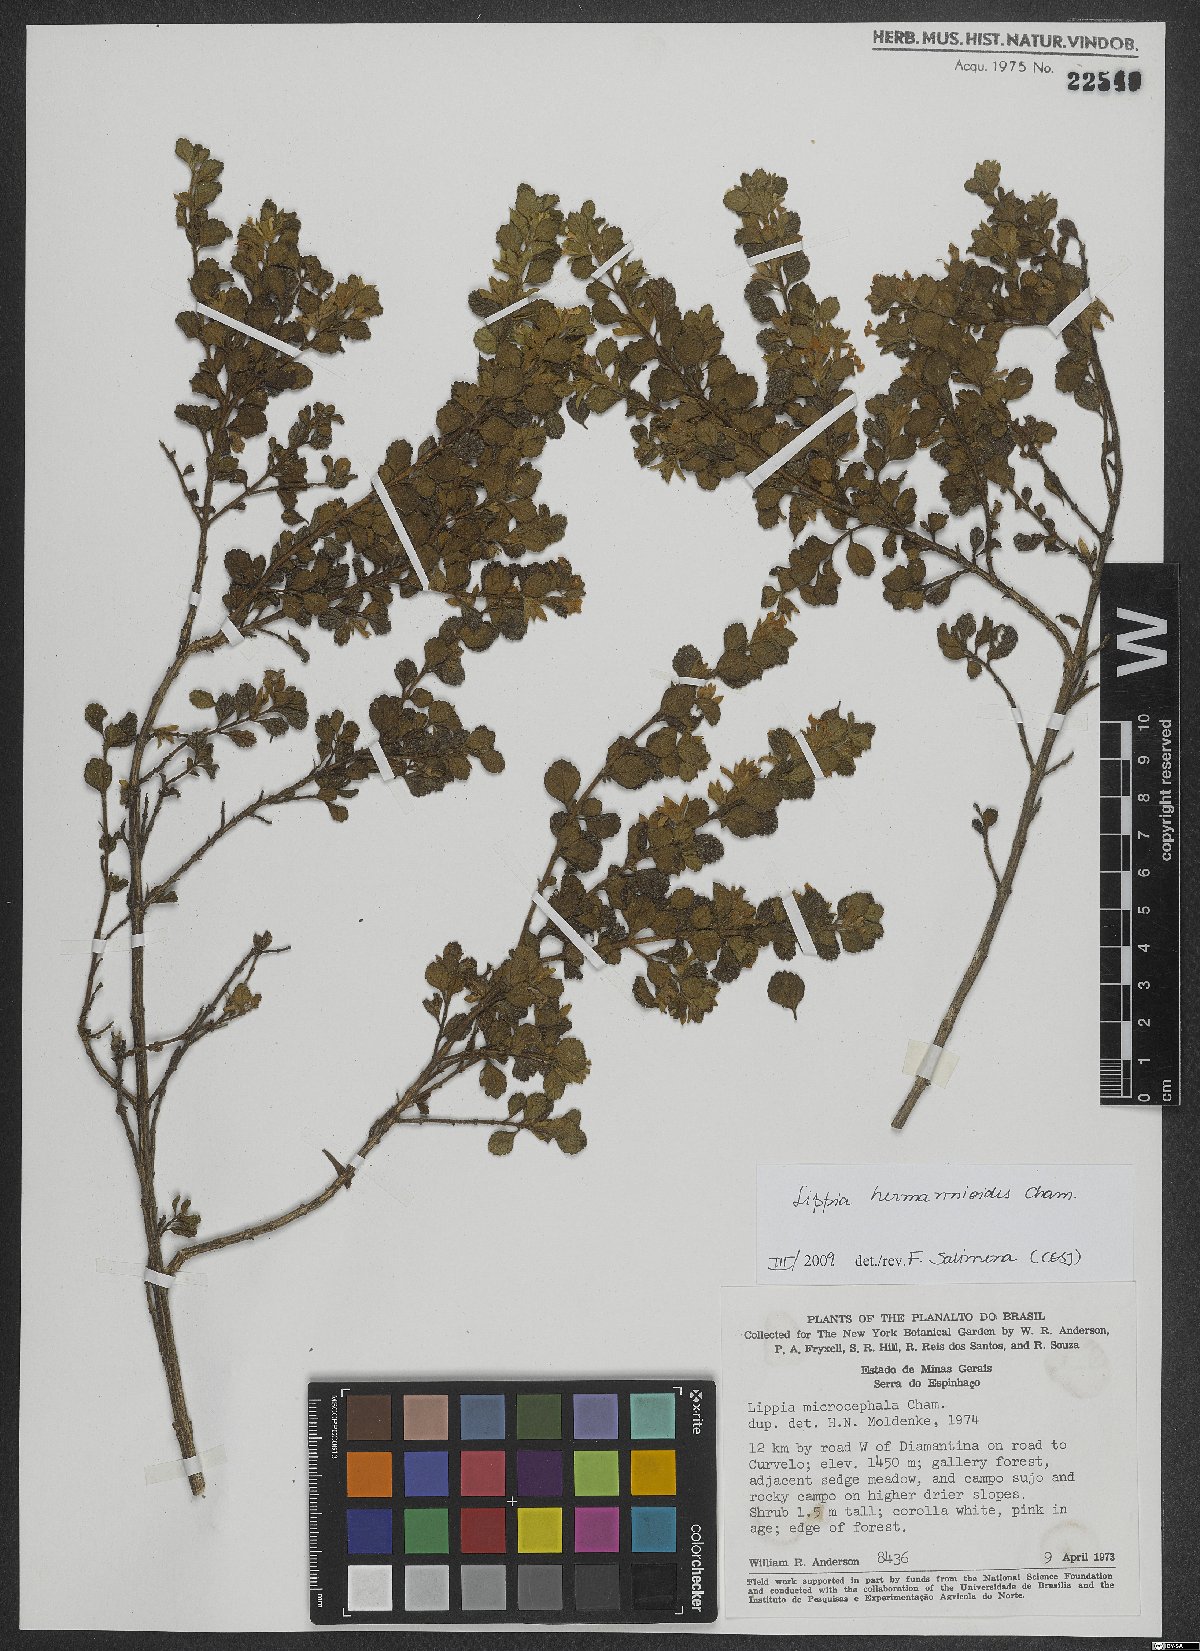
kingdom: Plantae
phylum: Tracheophyta
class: Magnoliopsida
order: Lamiales
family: Verbenaceae
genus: Lippia
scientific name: Lippia hermannioides
